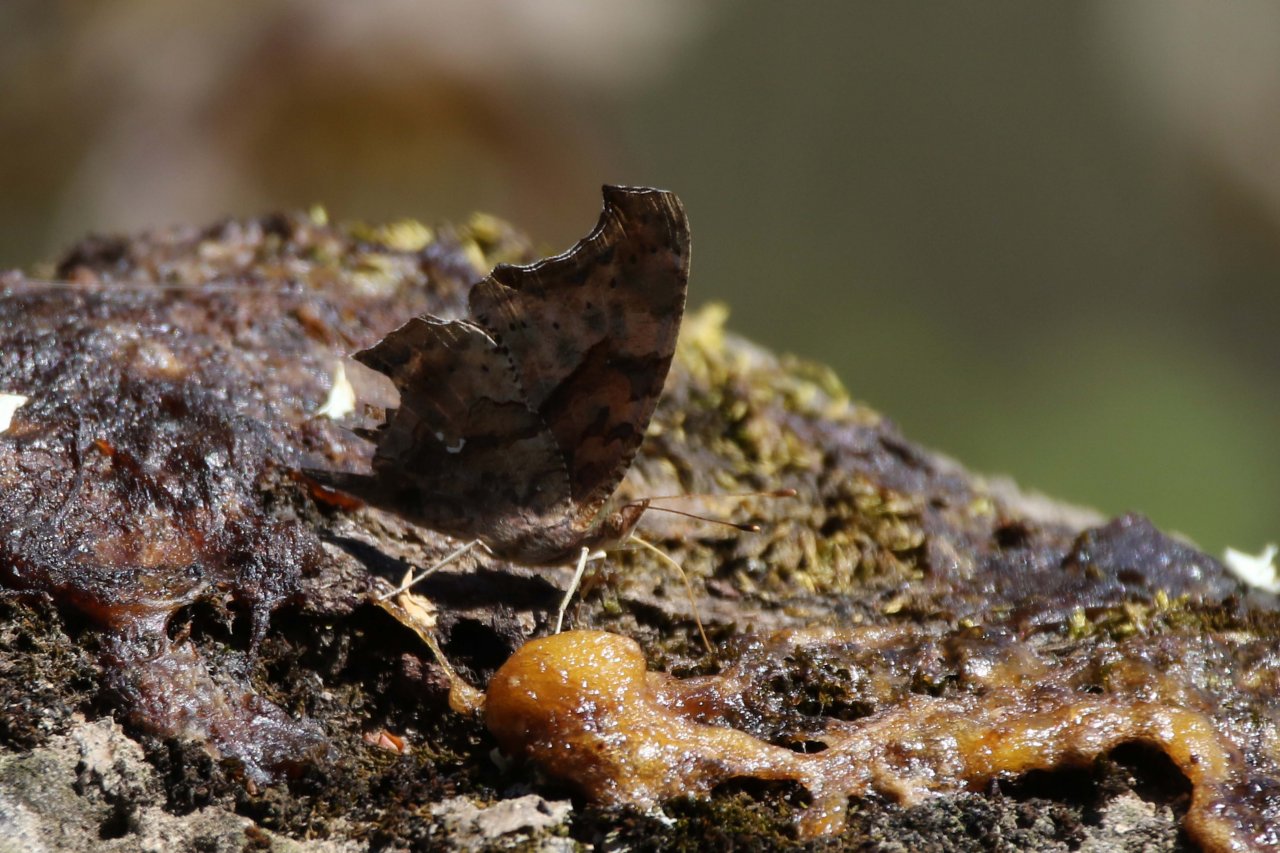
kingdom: Animalia
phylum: Arthropoda
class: Insecta
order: Lepidoptera
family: Nymphalidae
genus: Polygonia
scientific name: Polygonia interrogationis
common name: Question Mark
